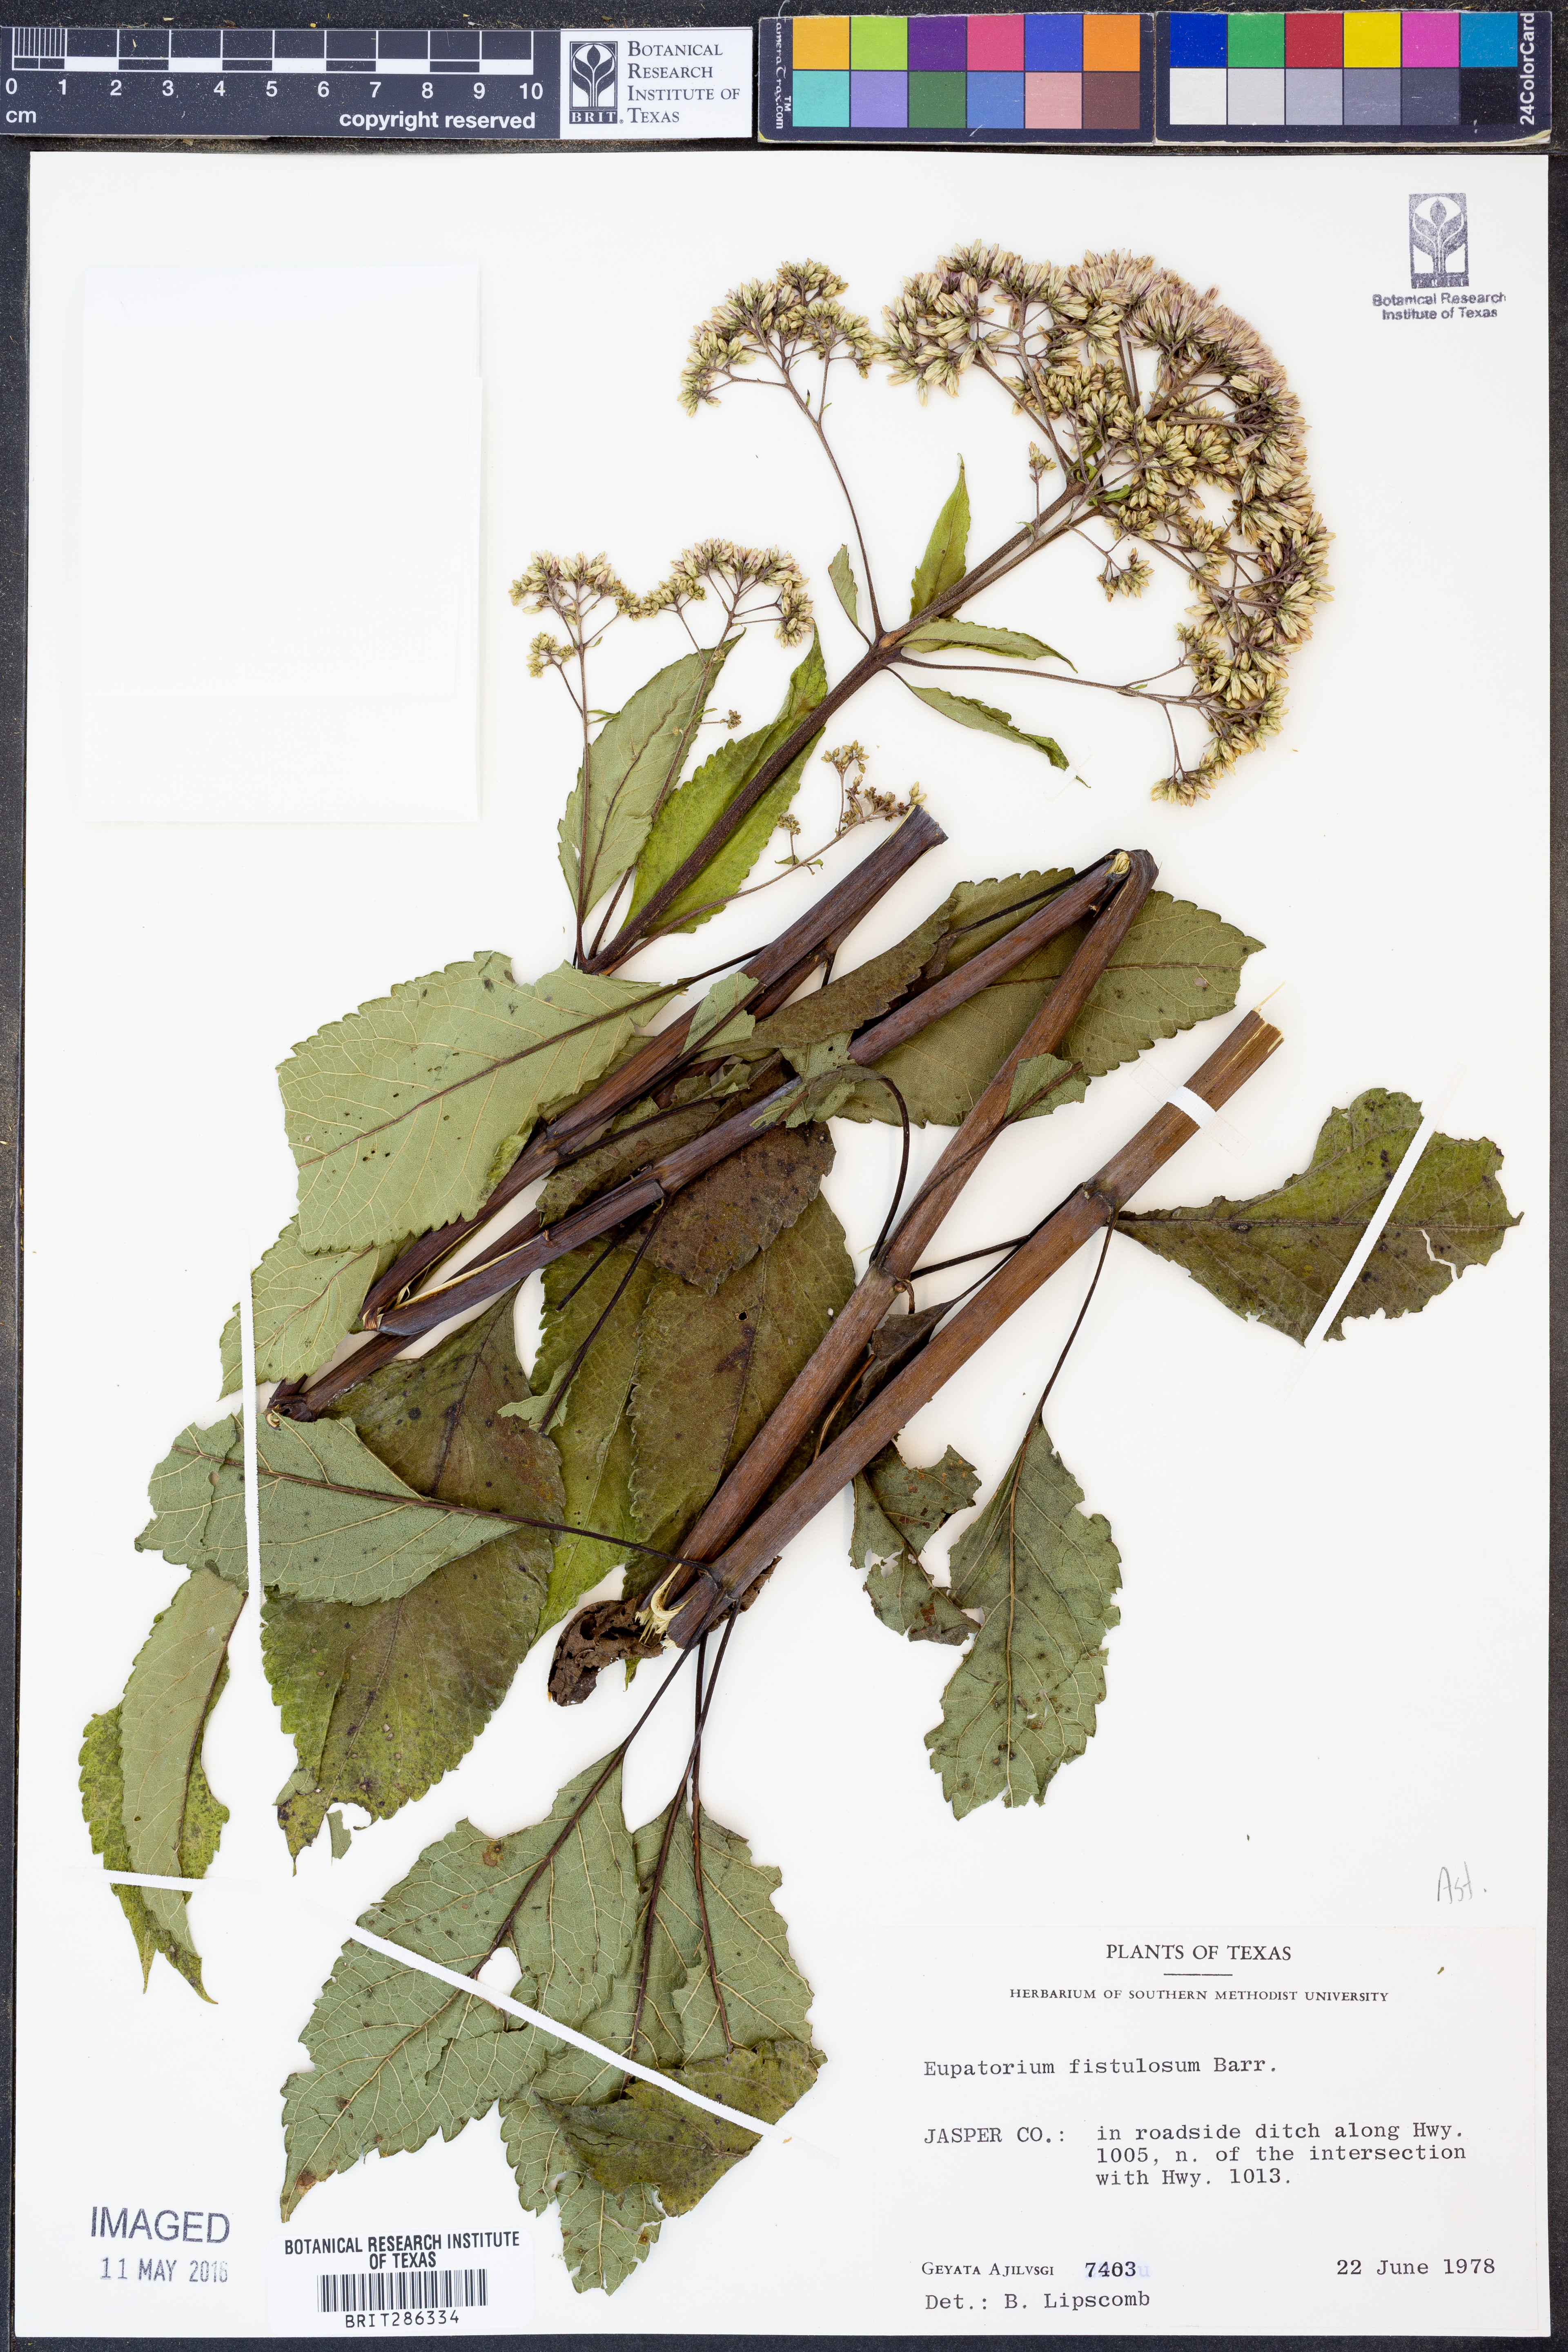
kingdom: Plantae
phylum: Tracheophyta
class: Magnoliopsida
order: Asterales
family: Asteraceae
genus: Eutrochium
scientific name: Eutrochium fistulosum
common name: Trumpetweed
